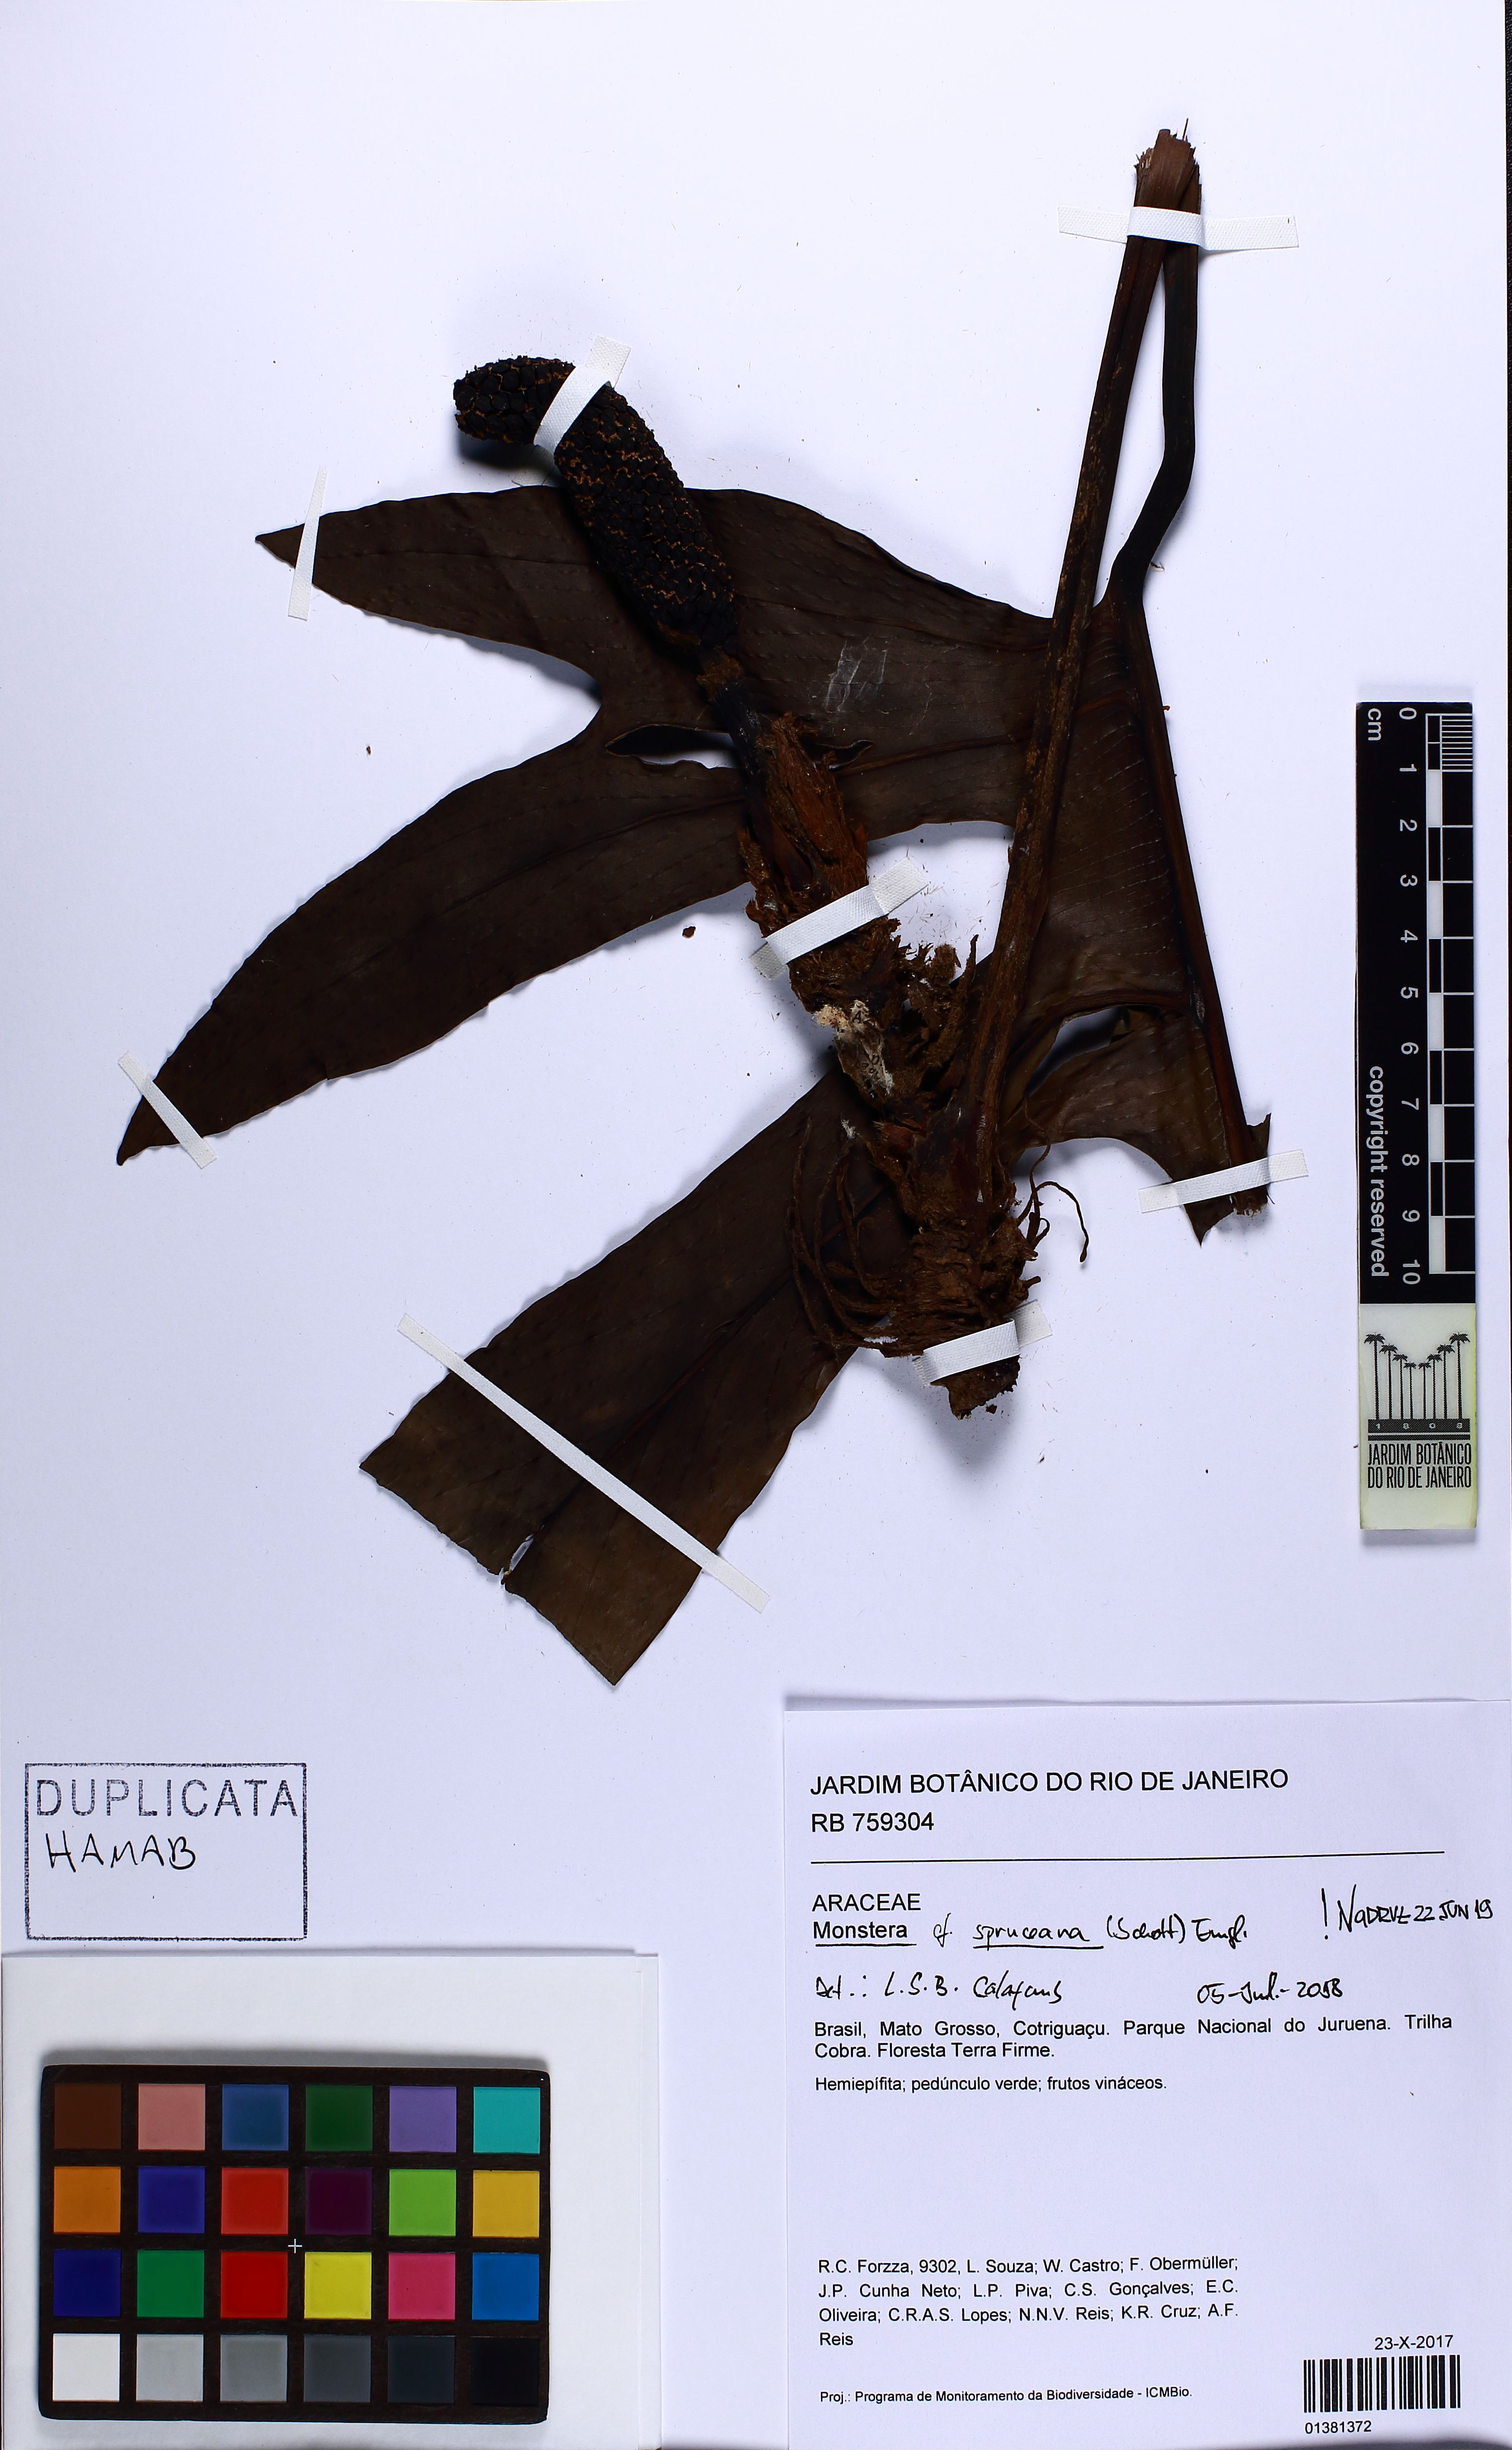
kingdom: Plantae
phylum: Tracheophyta
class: Liliopsida
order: Alismatales
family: Araceae
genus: Monstera
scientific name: Monstera spruceana
